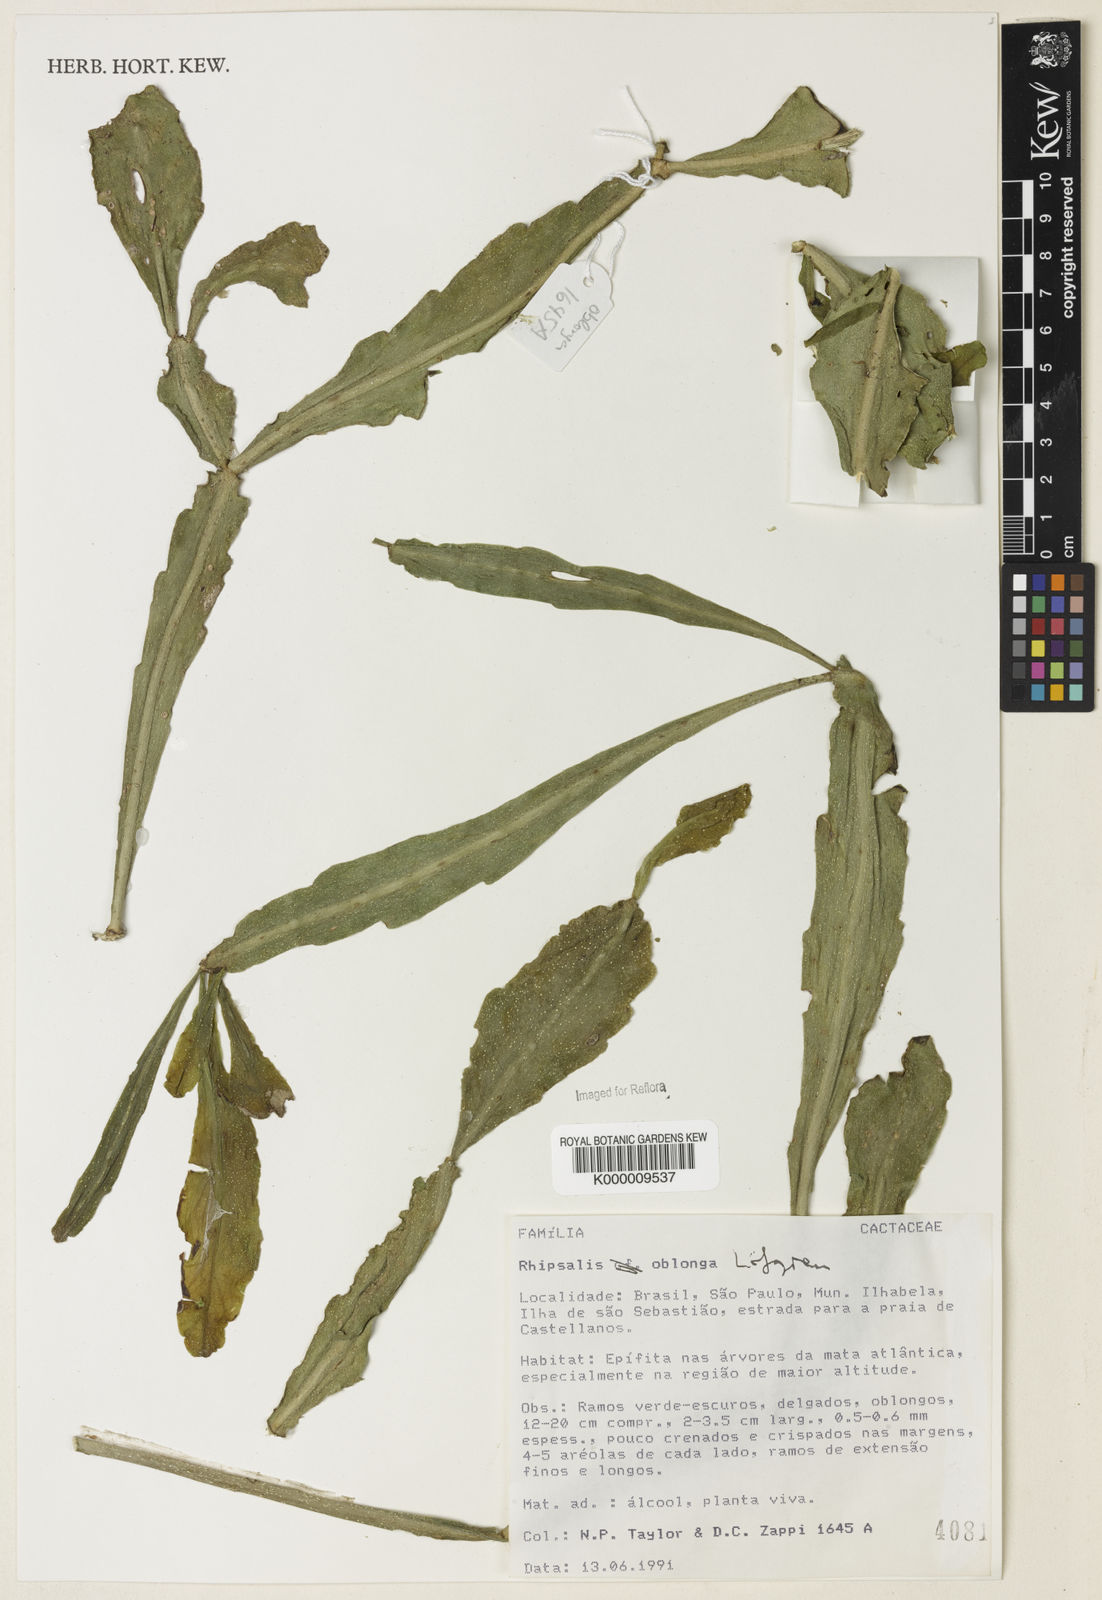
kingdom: Plantae
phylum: Tracheophyta
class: Magnoliopsida
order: Caryophyllales
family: Cactaceae
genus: Rhipsalis
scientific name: Rhipsalis
